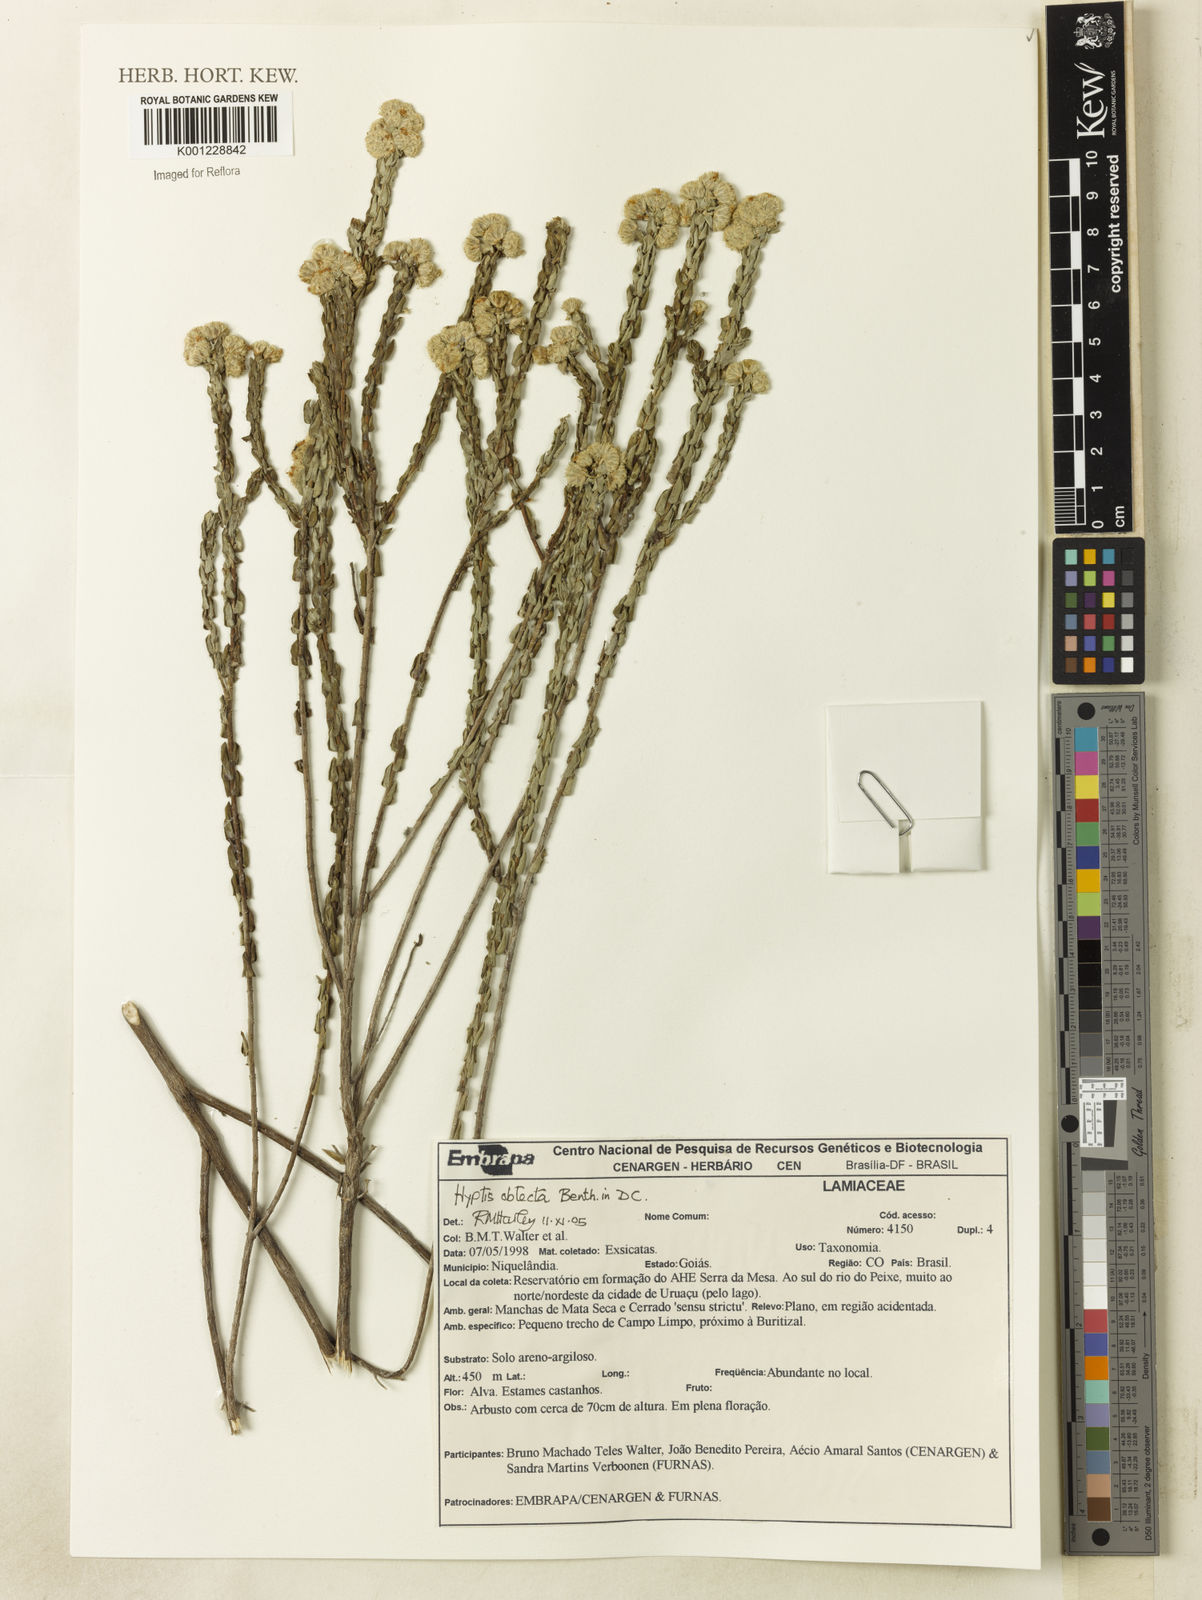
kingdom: Plantae
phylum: Tracheophyta
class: Magnoliopsida
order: Lamiales
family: Lamiaceae
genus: Hyptis
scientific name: Hyptis obtecta
